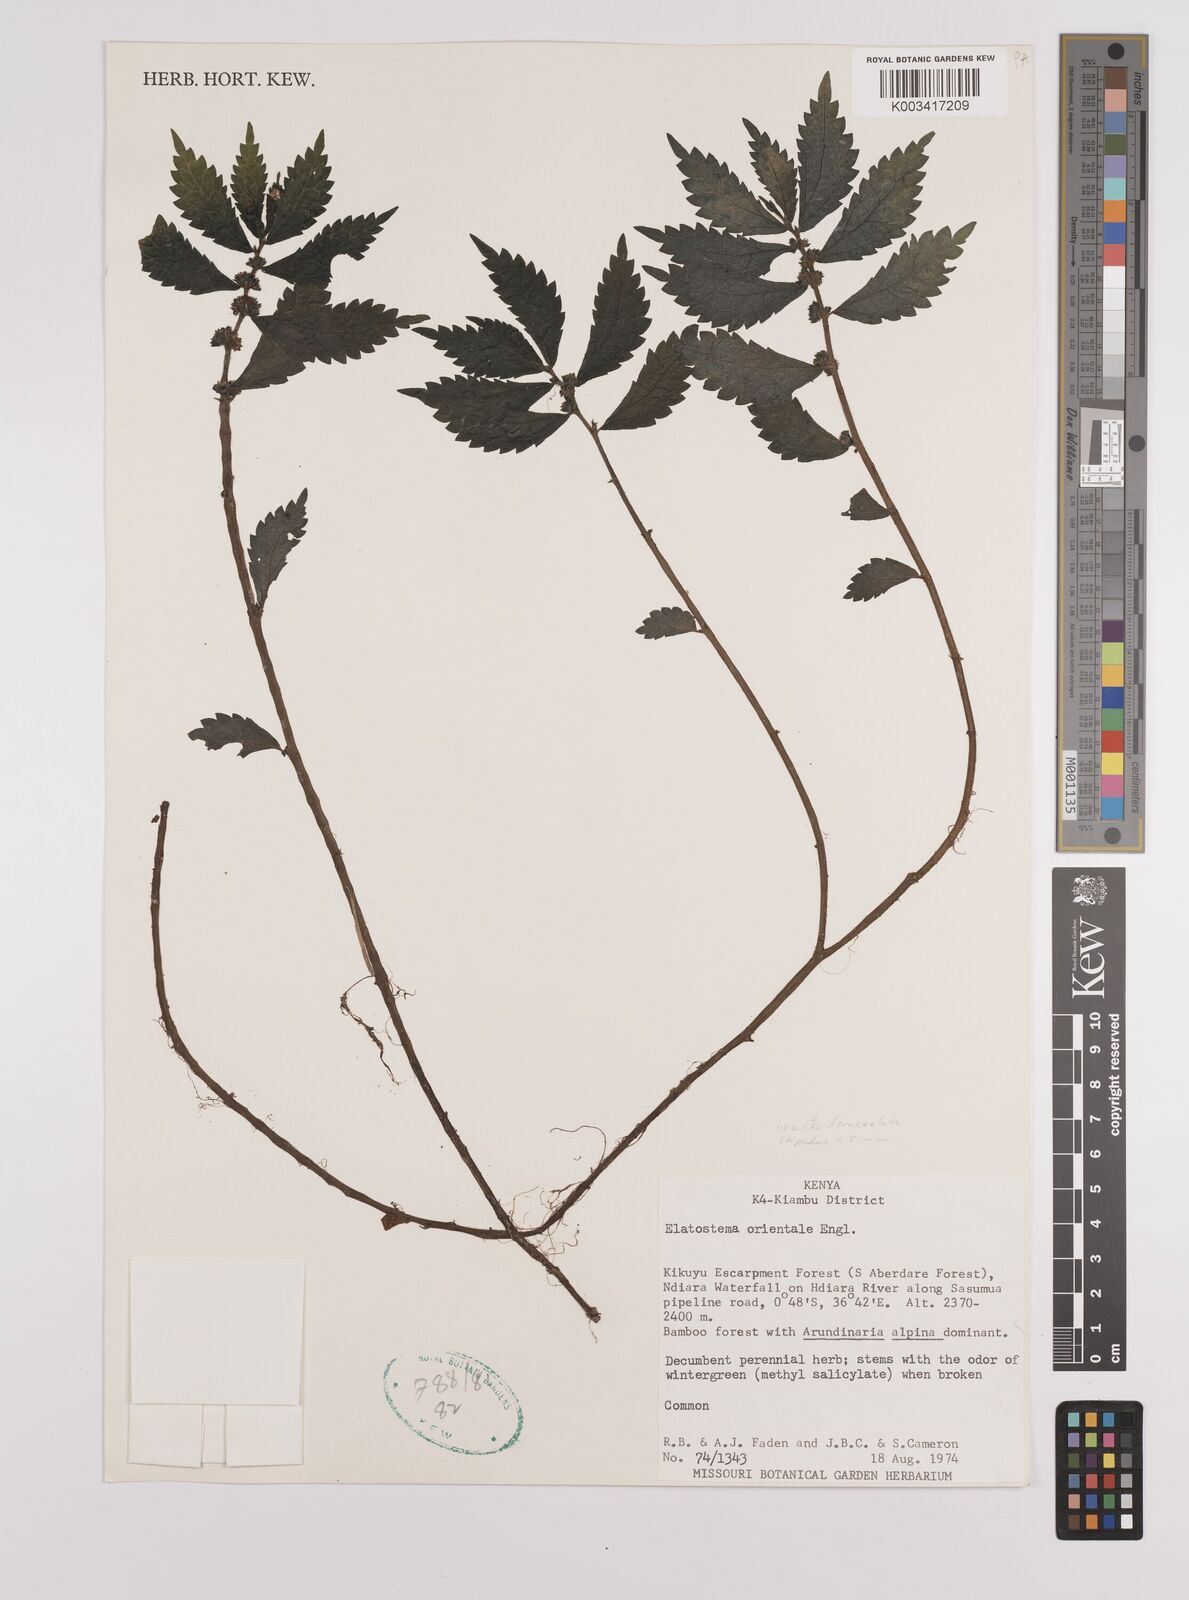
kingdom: Plantae
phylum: Tracheophyta
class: Magnoliopsida
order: Rosales
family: Urticaceae
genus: Elatostema
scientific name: Elatostema monticola
